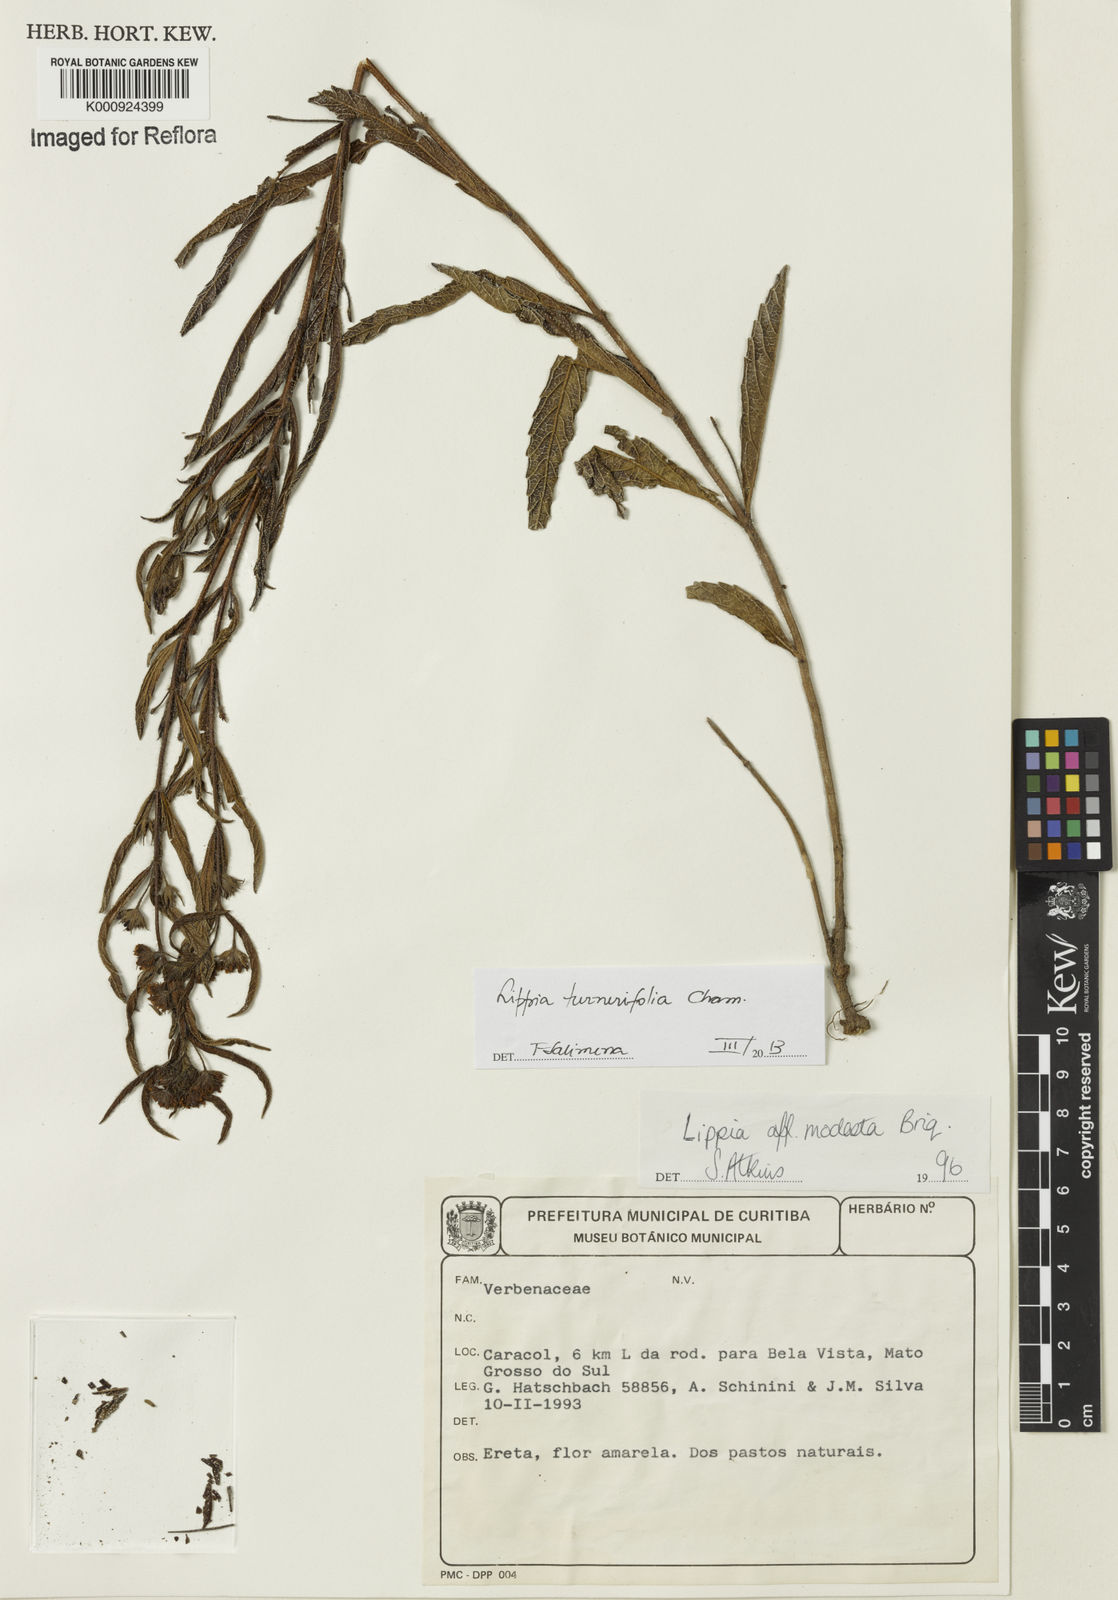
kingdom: Plantae
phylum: Tracheophyta
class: Magnoliopsida
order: Lamiales
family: Verbenaceae
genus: Lippia
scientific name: Lippia turnerifolia
